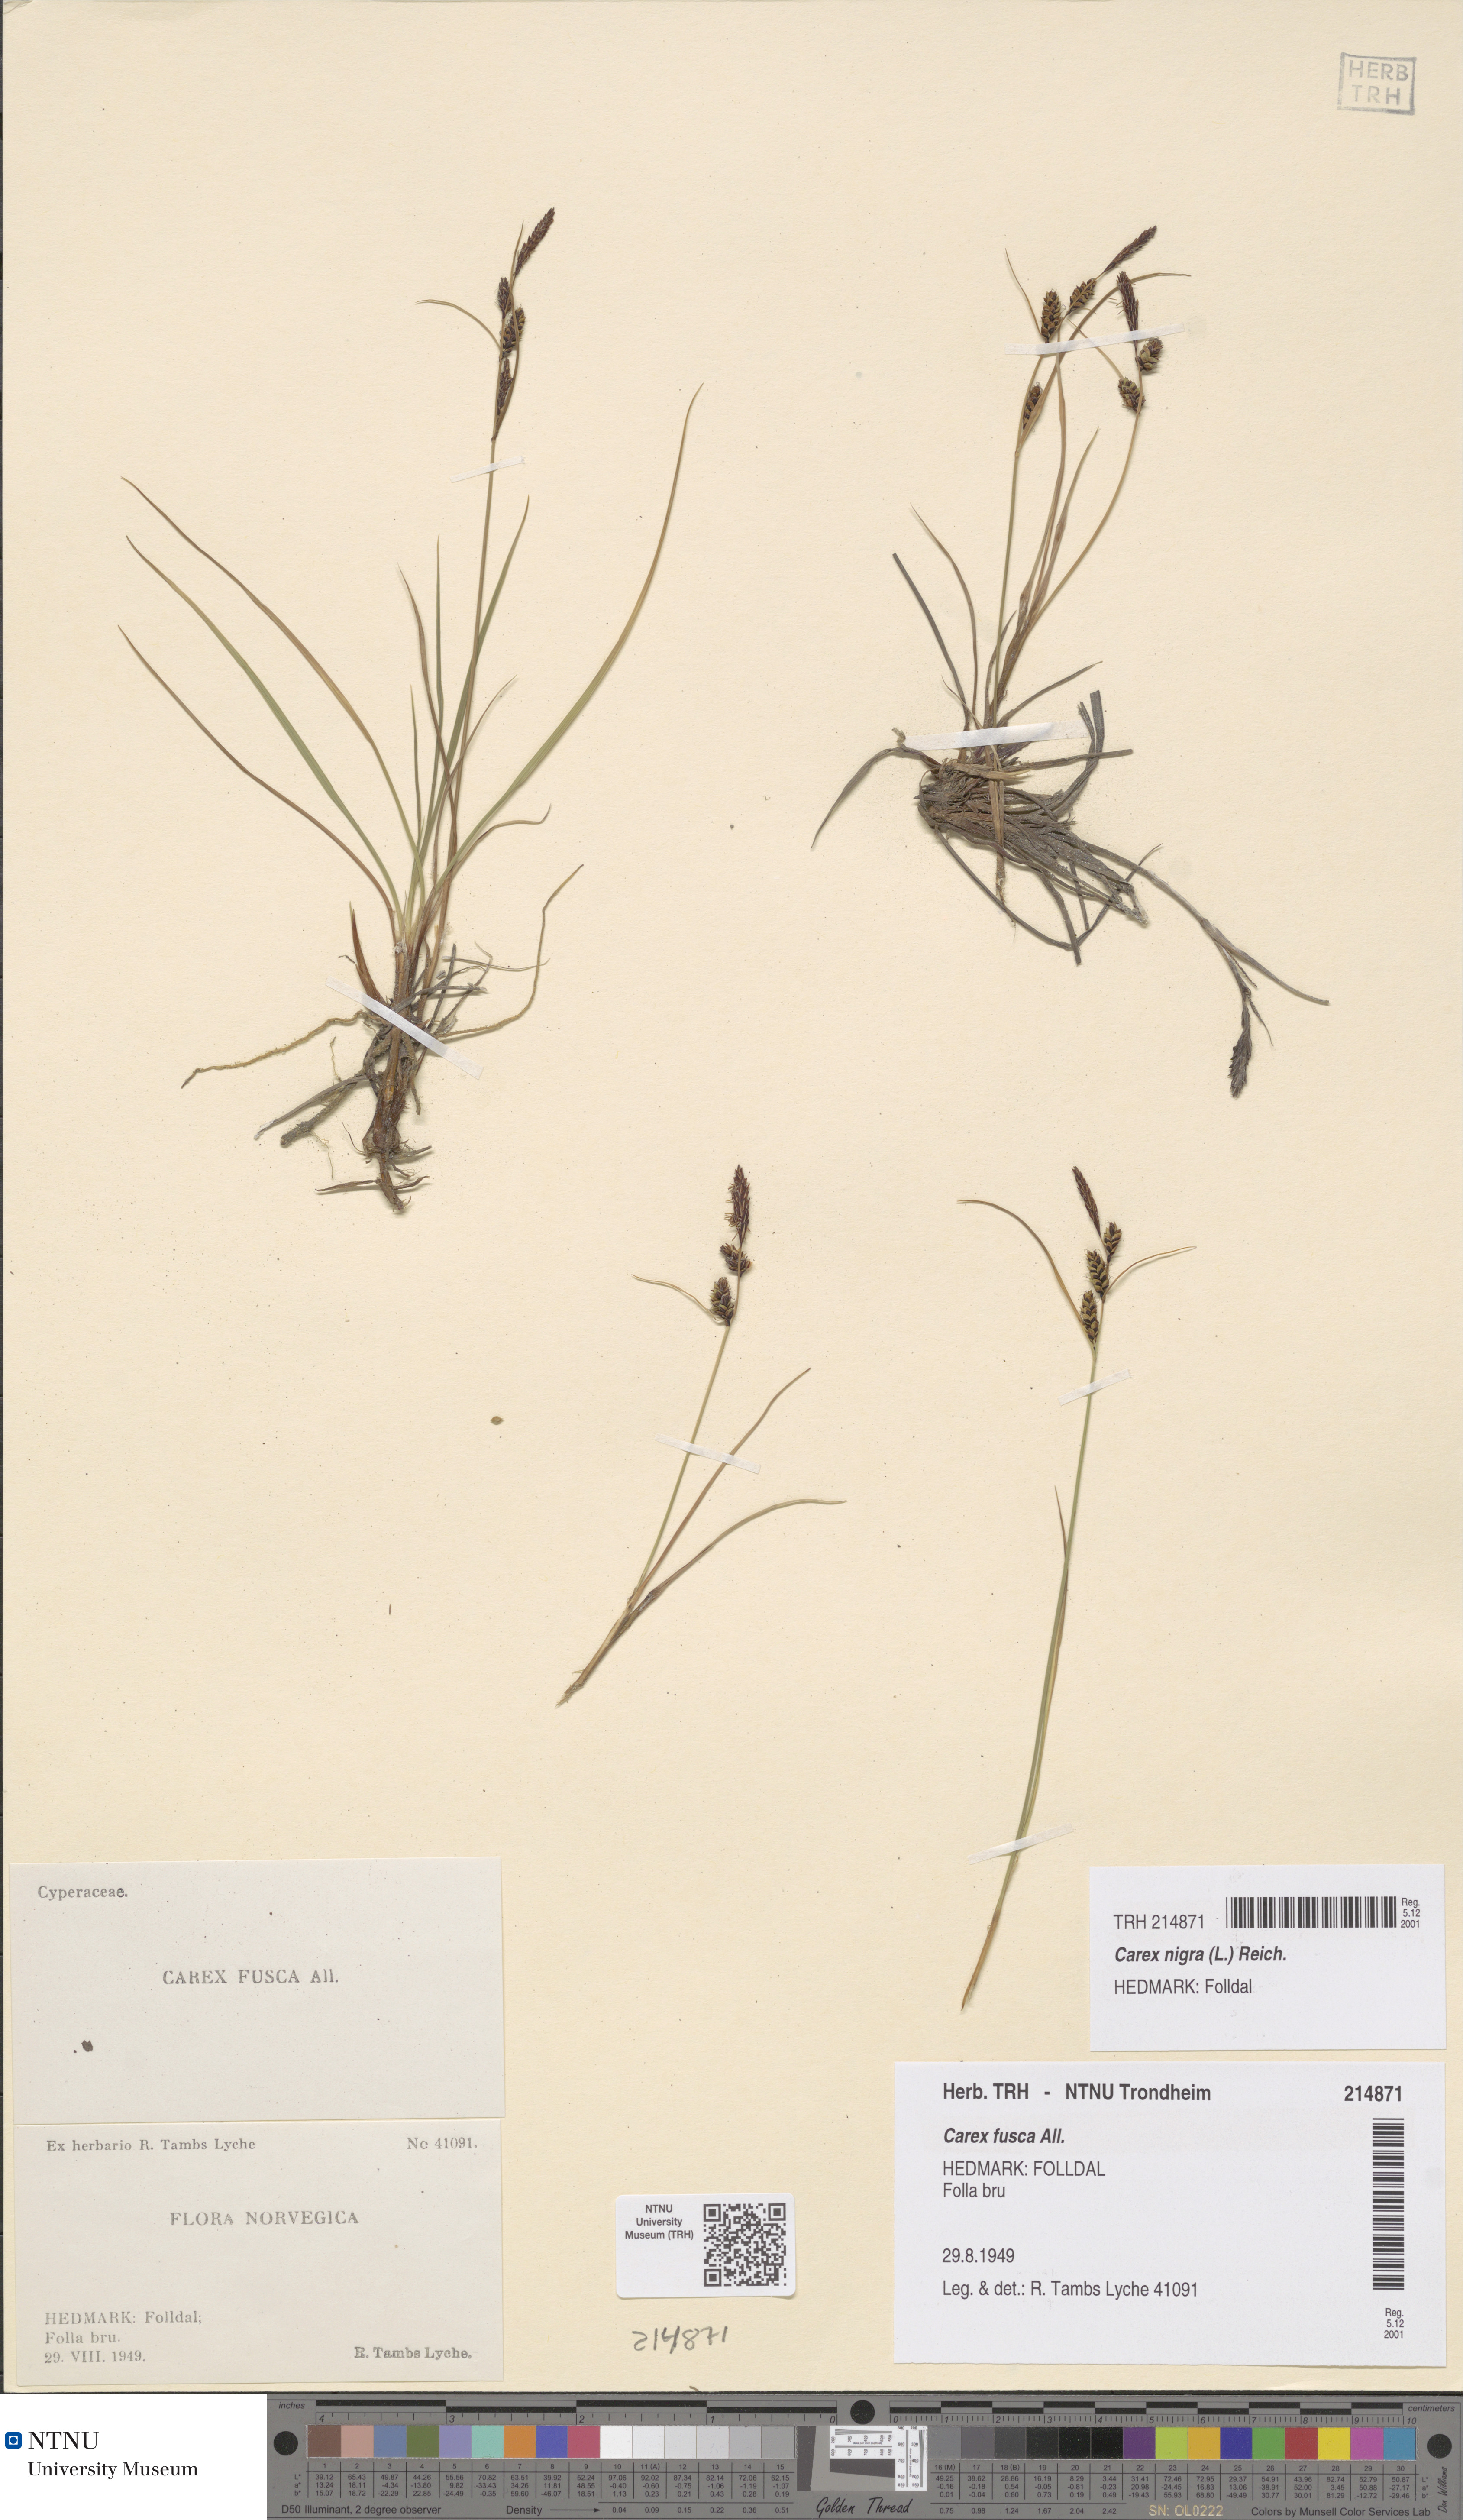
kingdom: Plantae
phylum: Tracheophyta
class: Liliopsida
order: Poales
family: Cyperaceae
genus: Carex
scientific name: Carex nigra
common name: Common sedge
